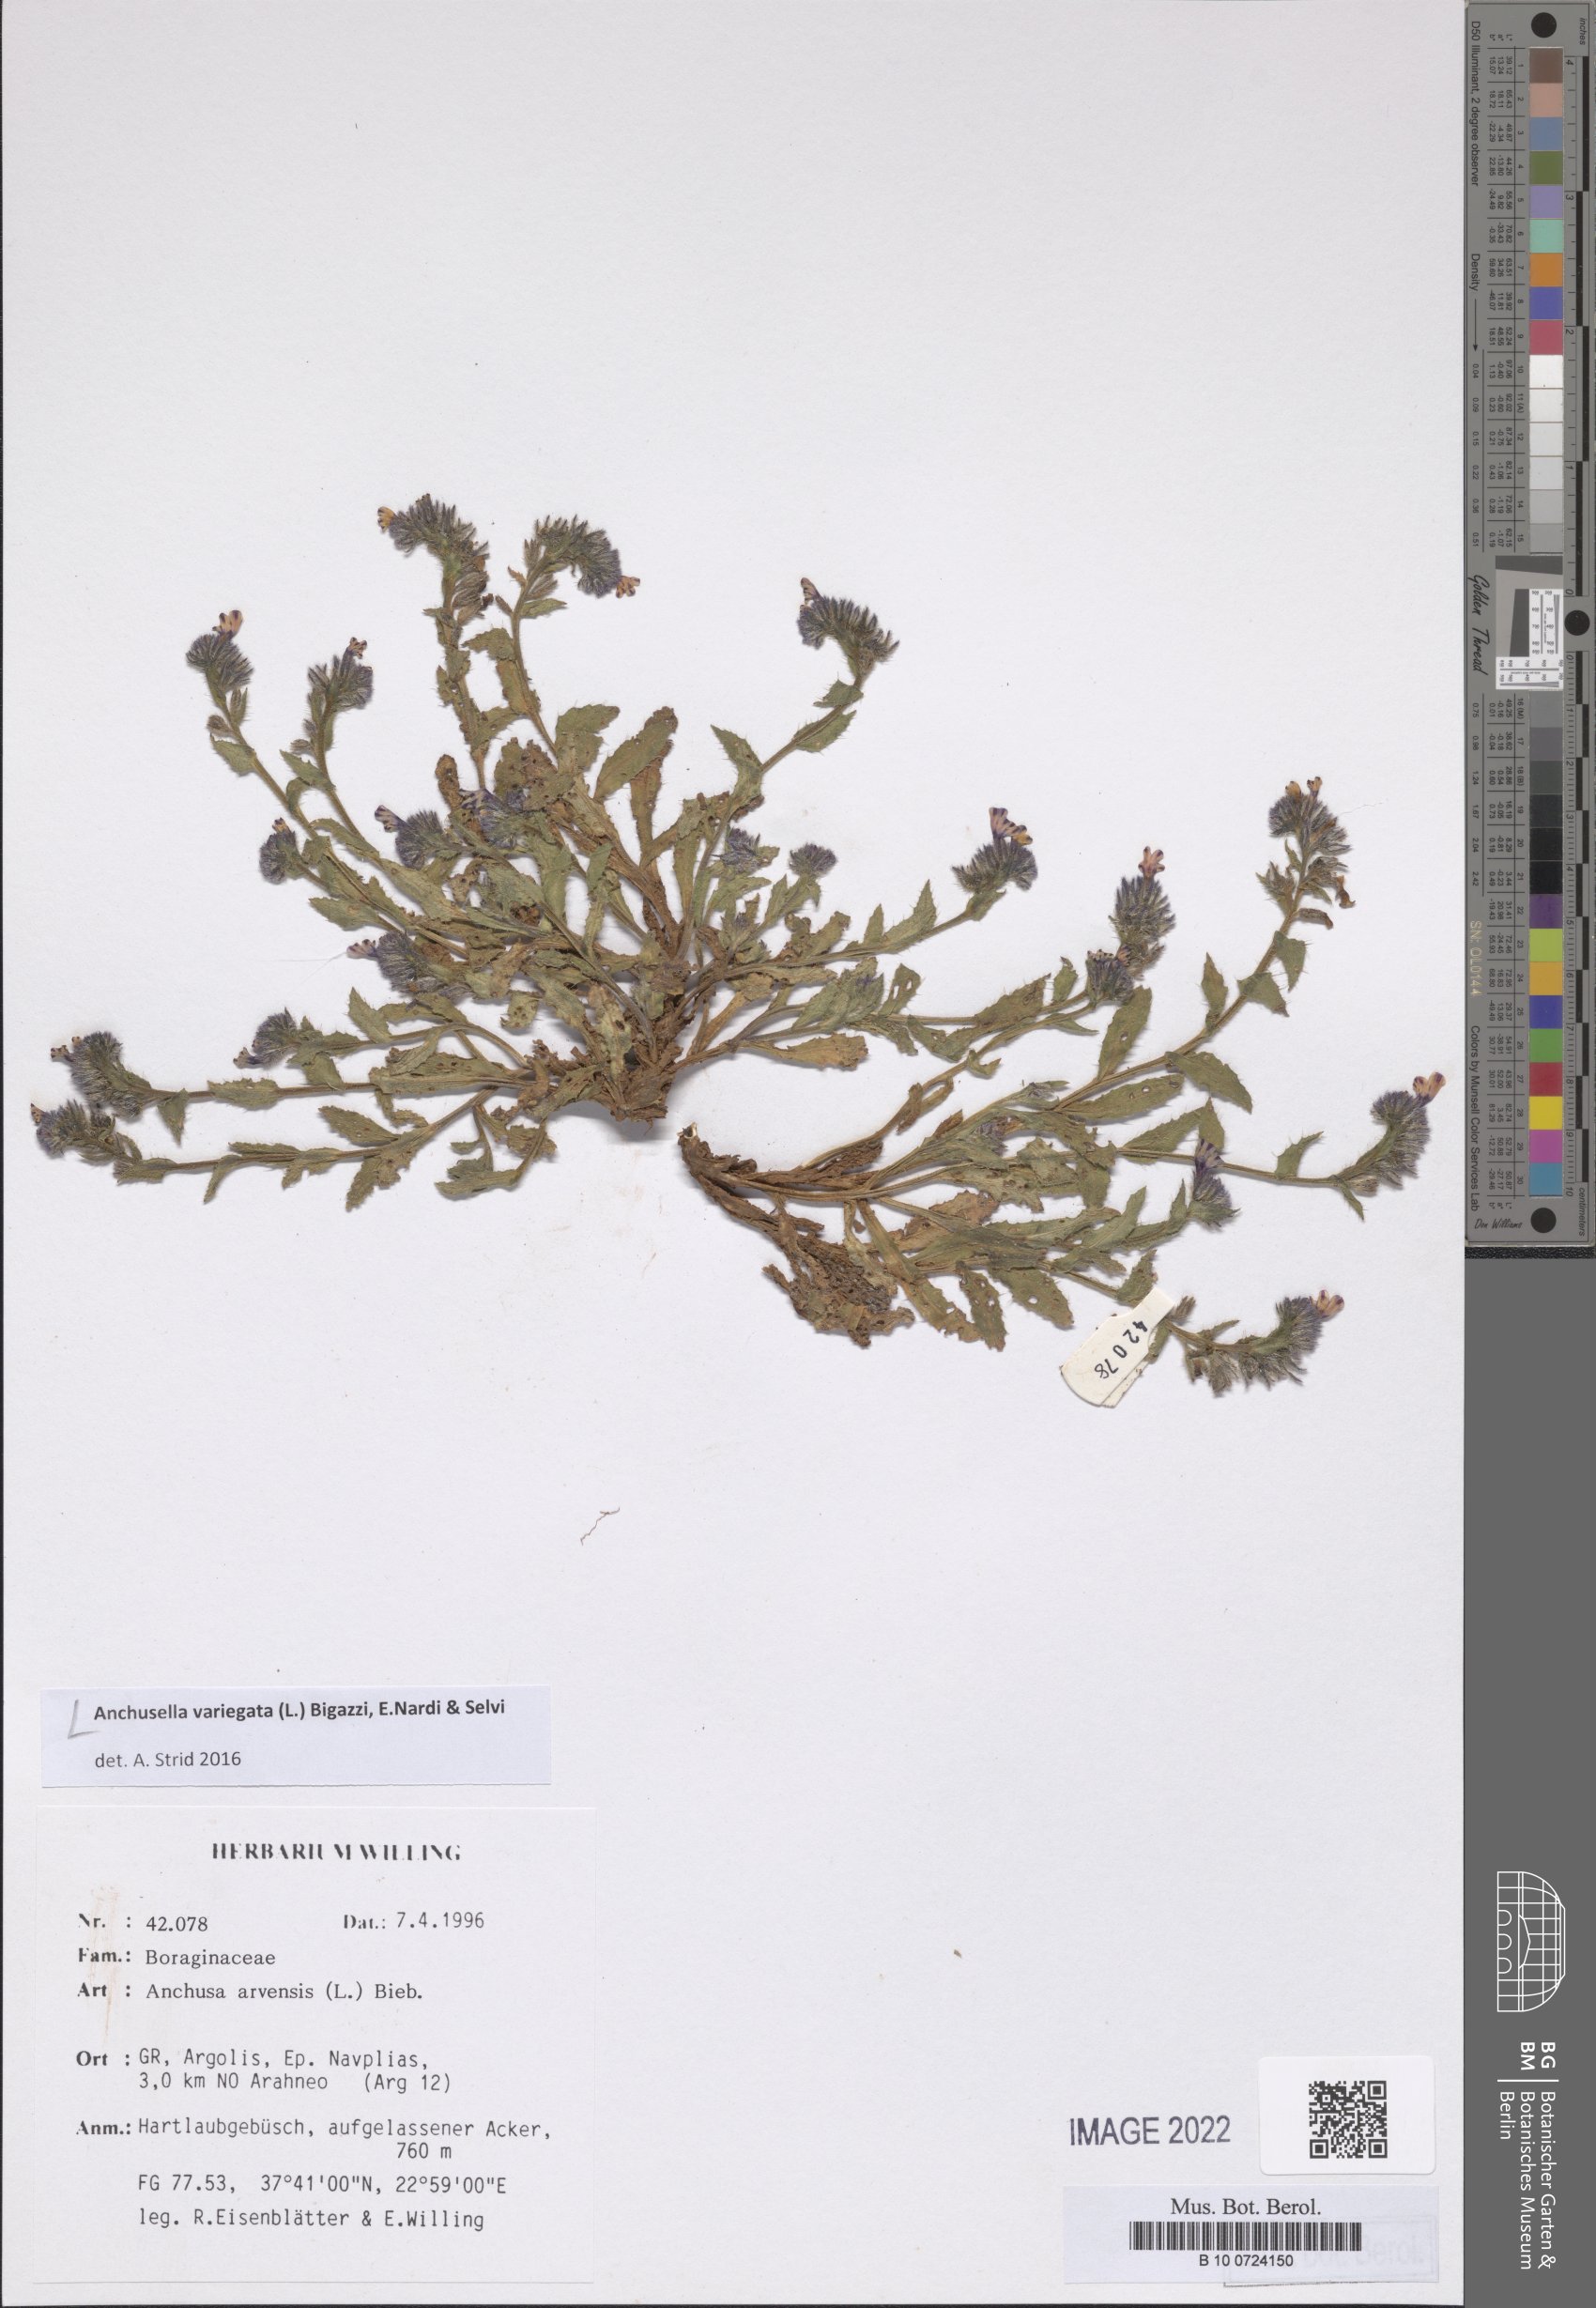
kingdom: Plantae
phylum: Tracheophyta
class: Magnoliopsida
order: Boraginales
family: Boraginaceae
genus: Anchusella
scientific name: Anchusella variegata
